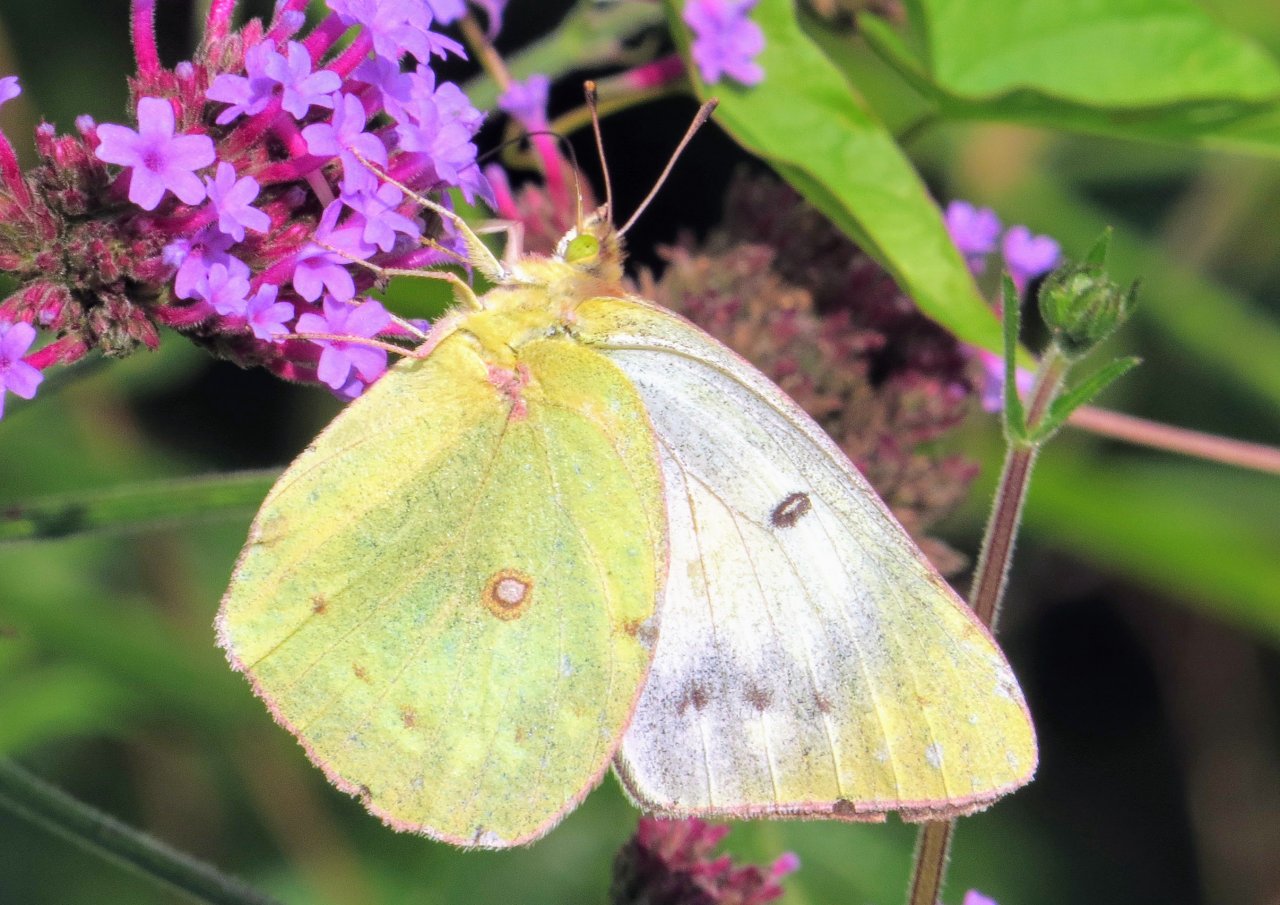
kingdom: Animalia
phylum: Arthropoda
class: Insecta
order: Lepidoptera
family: Pieridae
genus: Colias
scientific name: Colias
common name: Clouded Yellows
